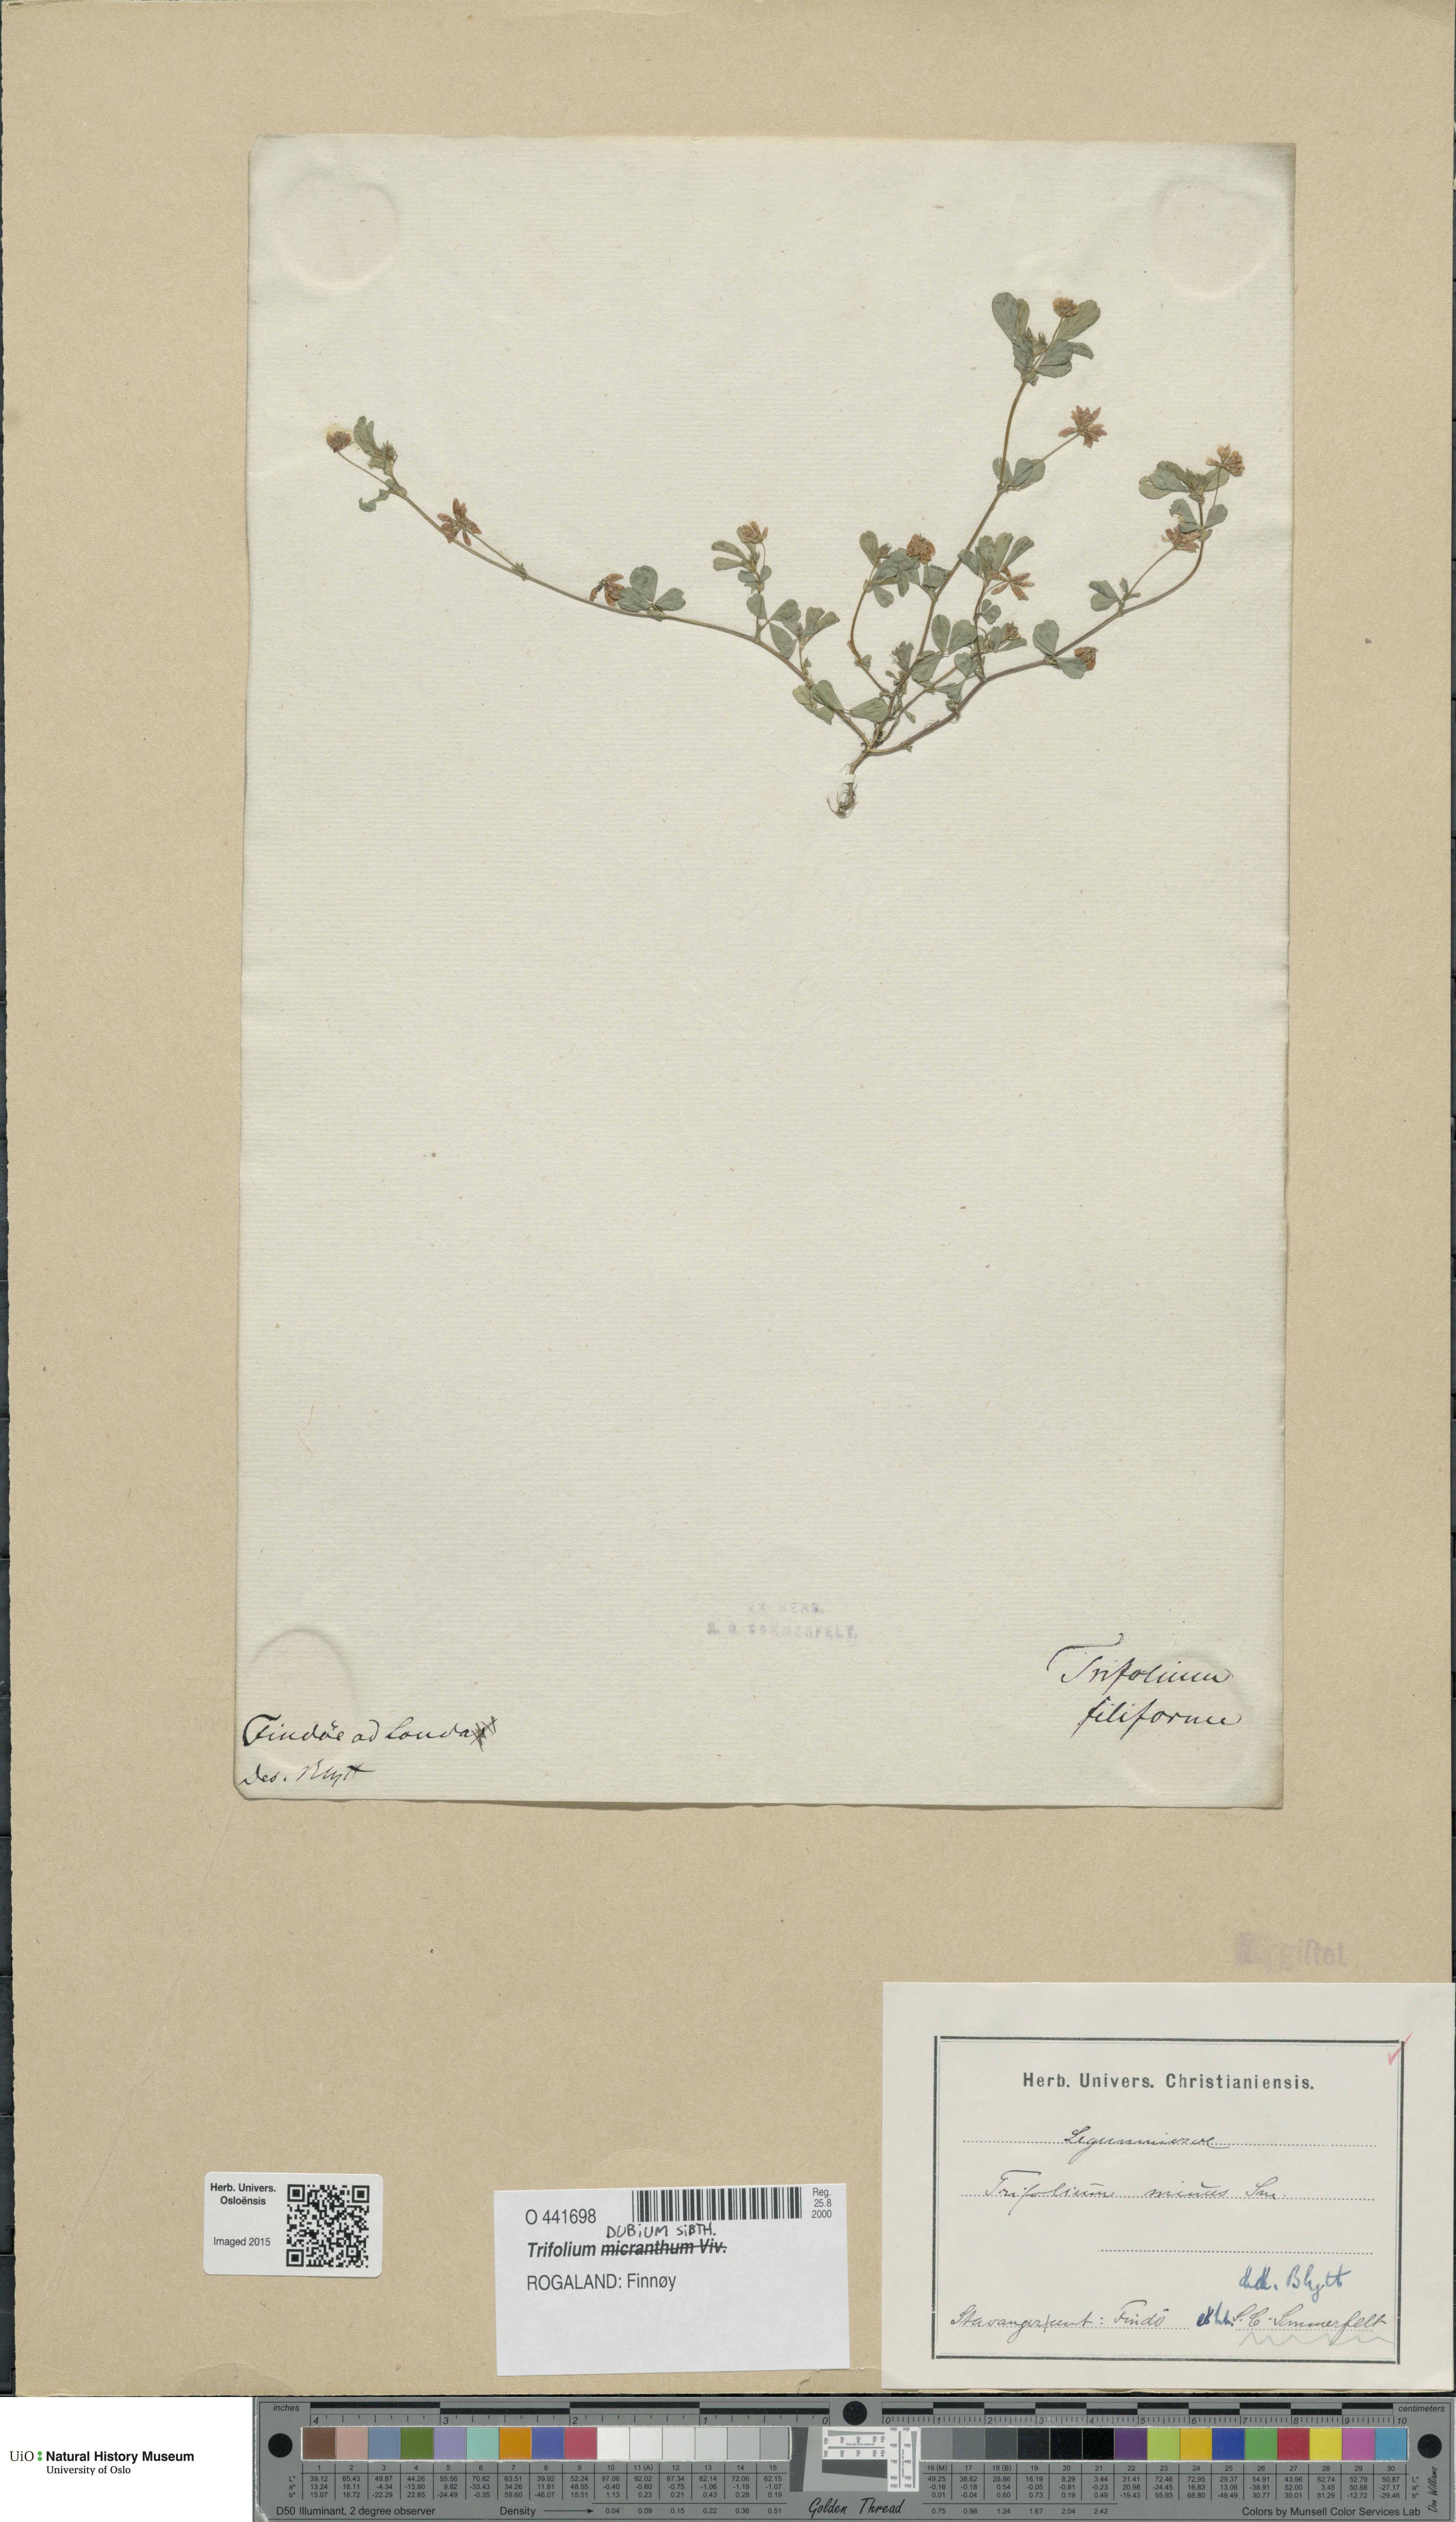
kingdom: Plantae
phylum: Tracheophyta
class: Magnoliopsida
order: Fabales
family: Fabaceae
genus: Trifolium
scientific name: Trifolium dubium
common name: Suckling clover
